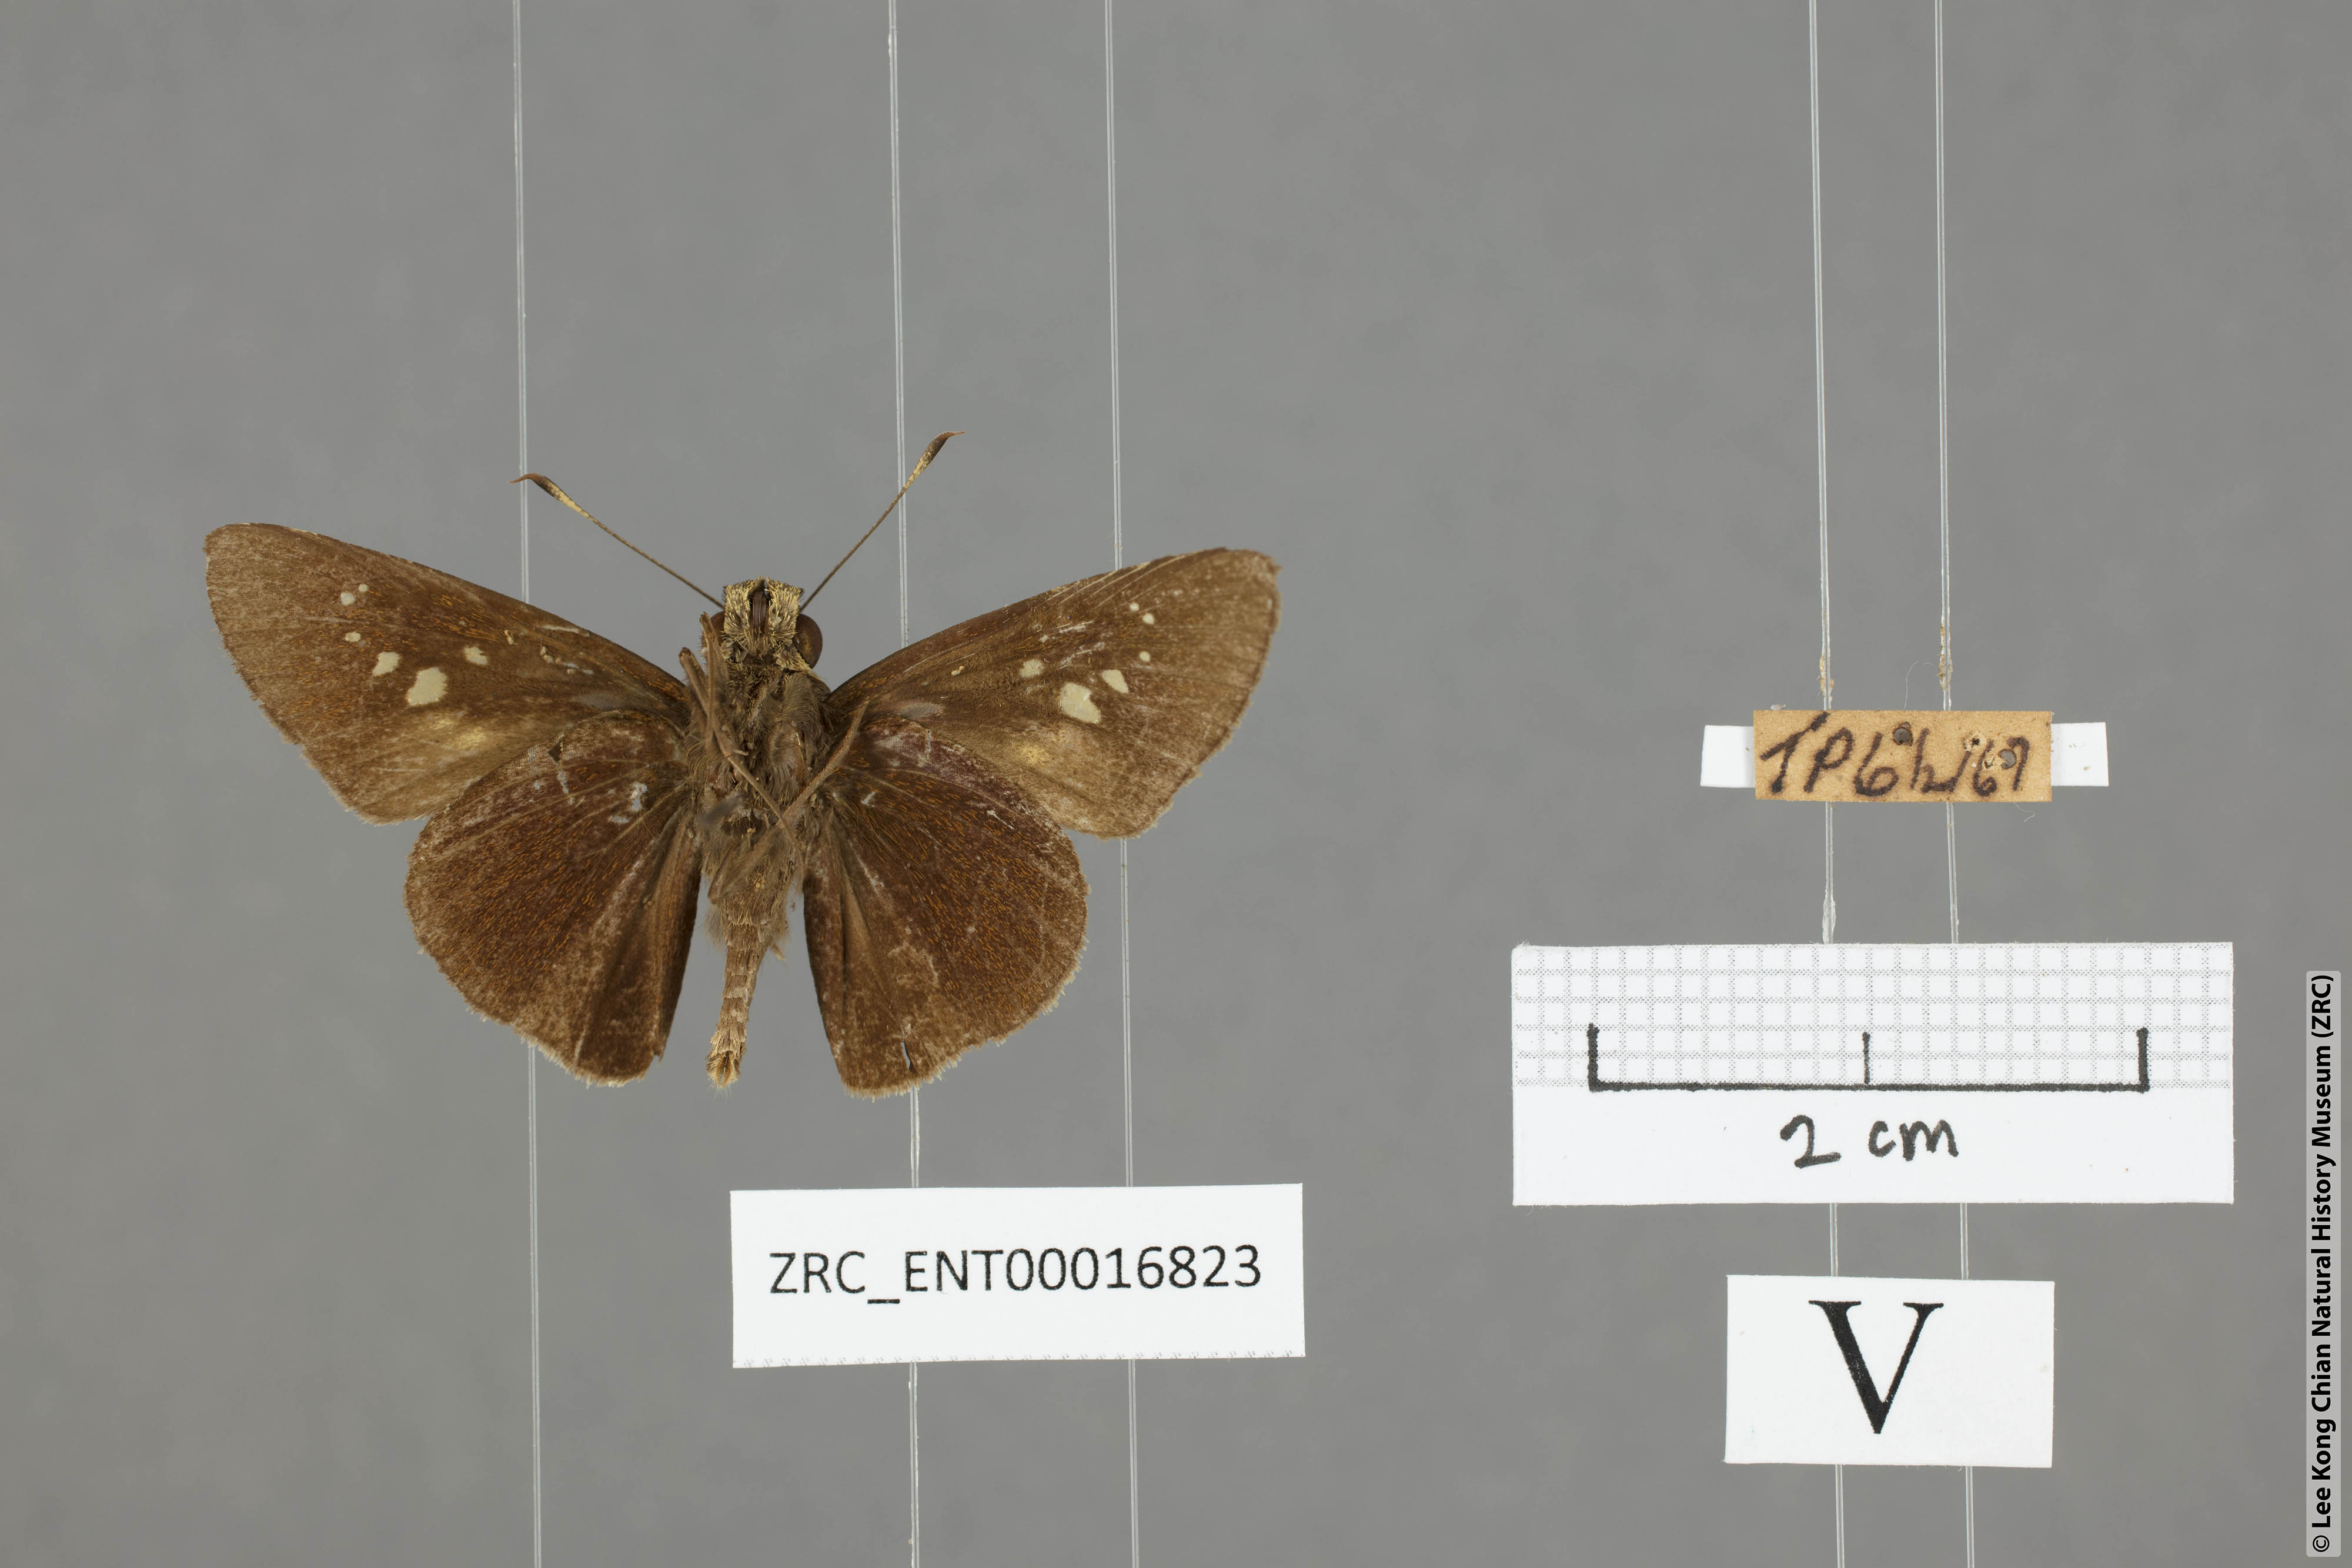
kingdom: Animalia
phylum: Arthropoda
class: Insecta
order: Lepidoptera
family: Hesperiidae
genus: Caltoris
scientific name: Caltoris cormasa
